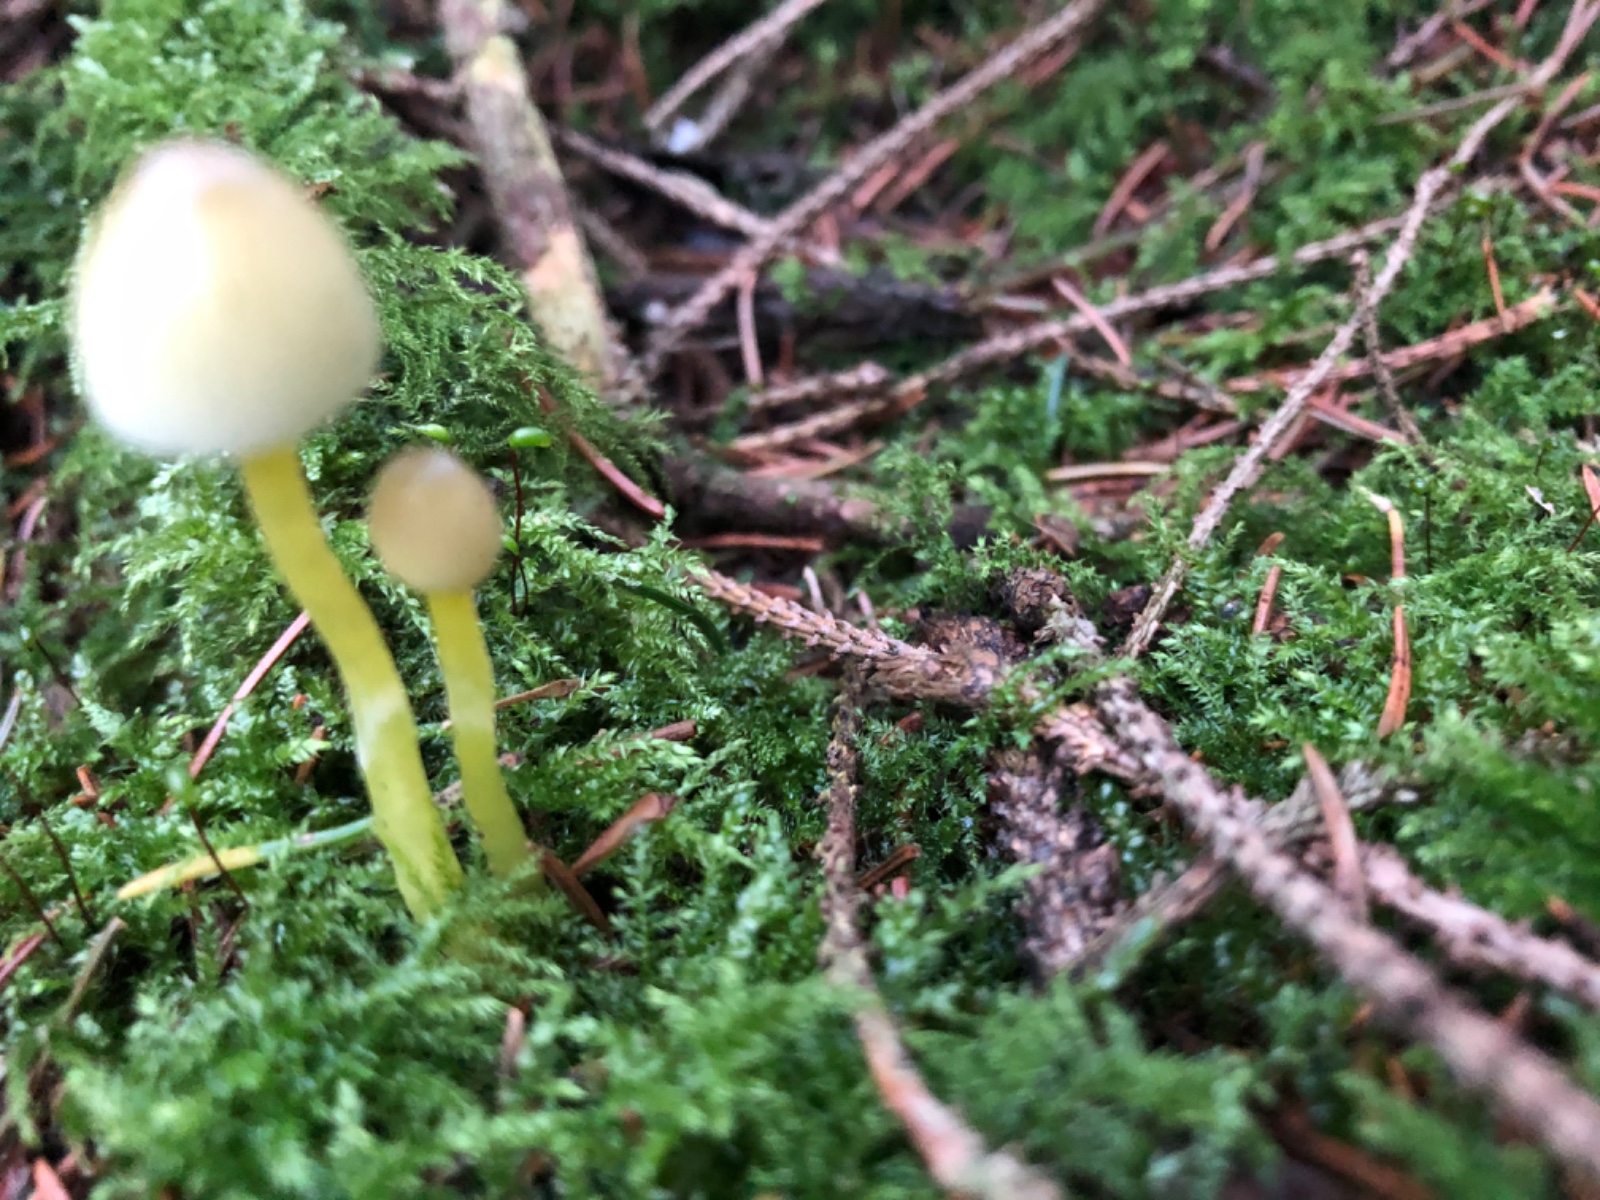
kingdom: Fungi
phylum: Basidiomycota
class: Agaricomycetes
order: Agaricales
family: Mycenaceae
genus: Mycena
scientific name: Mycena epipterygia
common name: gulstokket huesvamp
